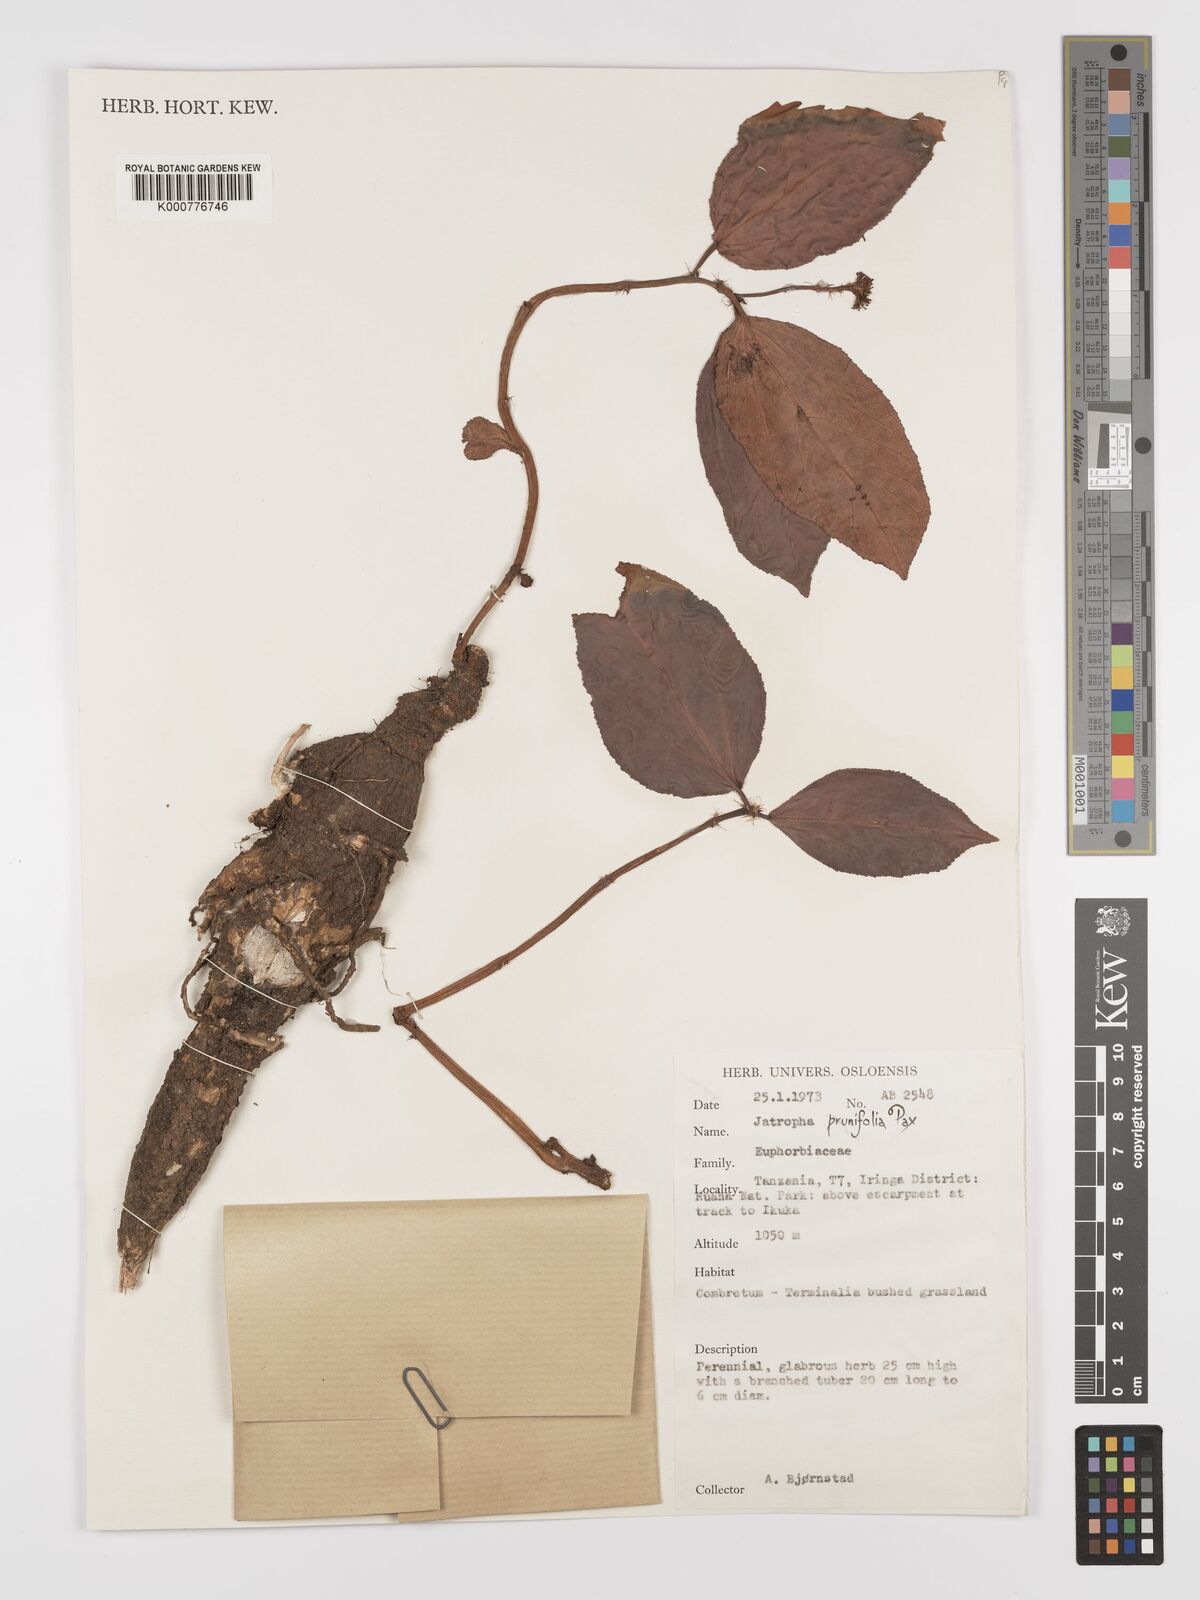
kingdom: Plantae
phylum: Tracheophyta
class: Magnoliopsida
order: Malpighiales
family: Euphorbiaceae
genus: Jatropha
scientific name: Jatropha
